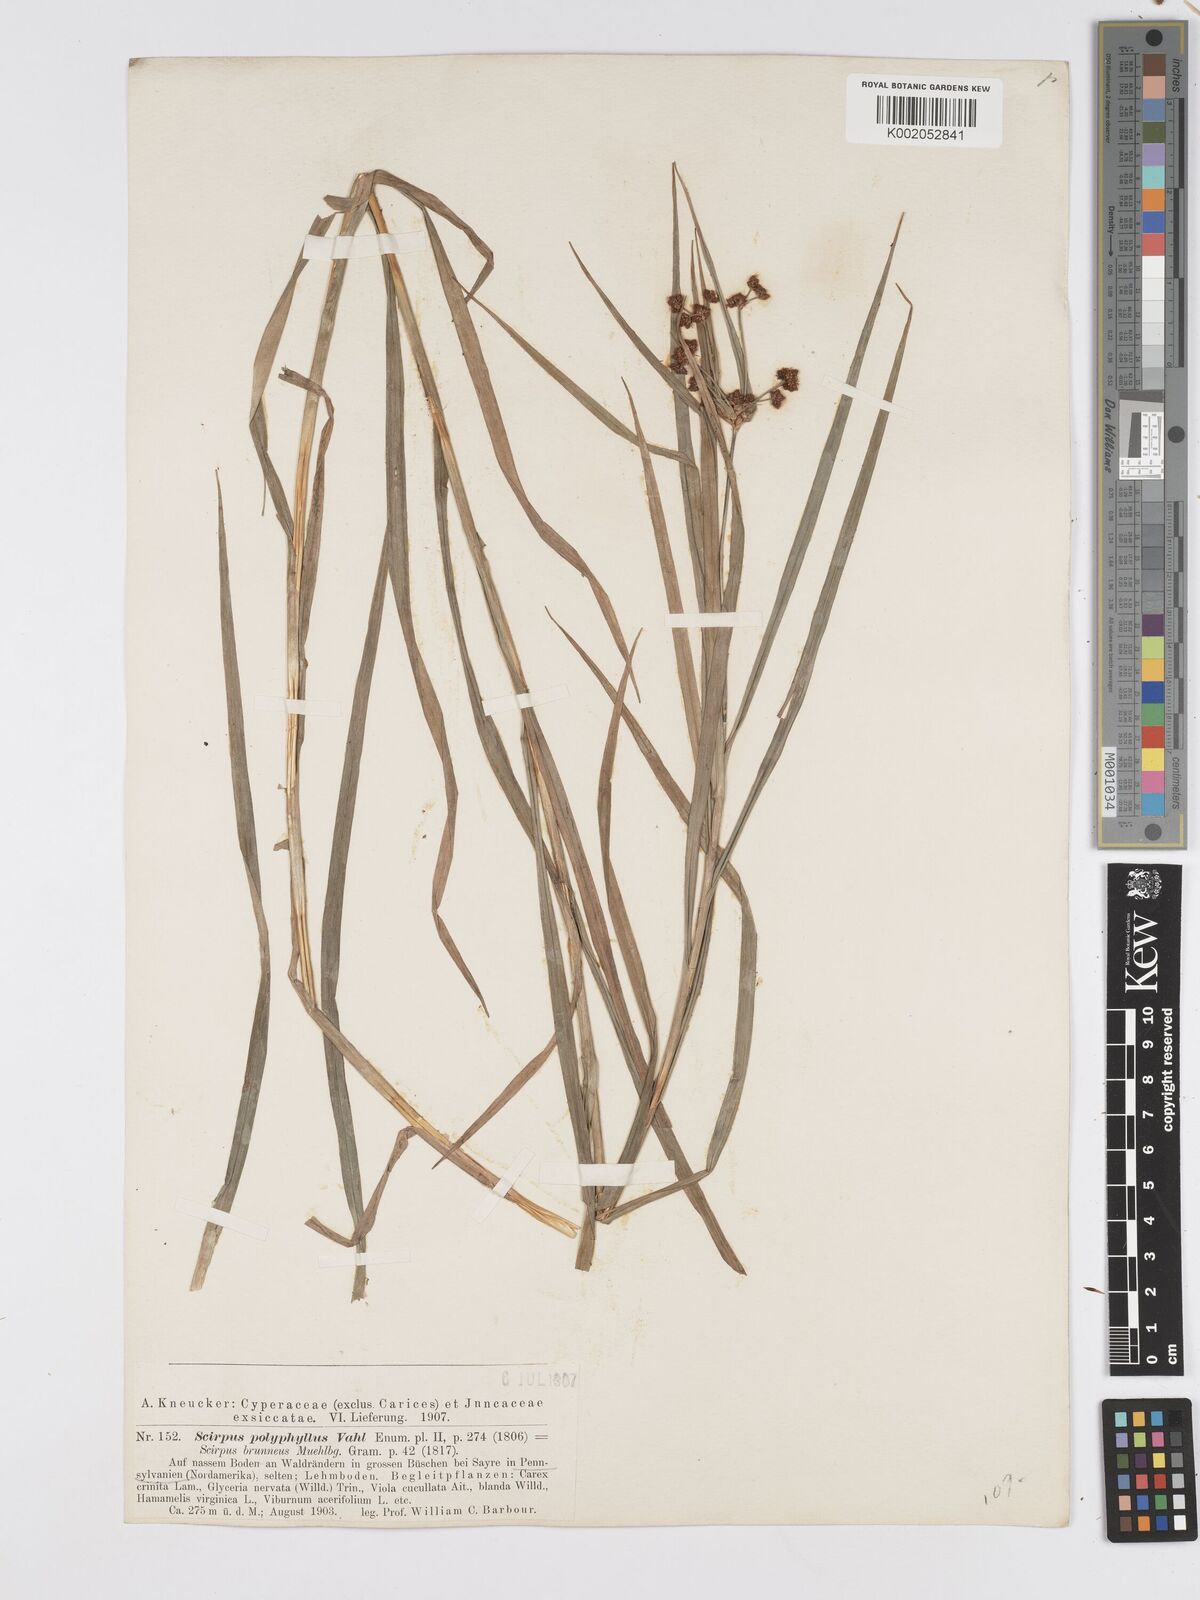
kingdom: Plantae
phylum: Tracheophyta
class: Liliopsida
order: Poales
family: Cyperaceae
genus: Scirpus
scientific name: Scirpus polyphyllus
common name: Leafy bulrush
